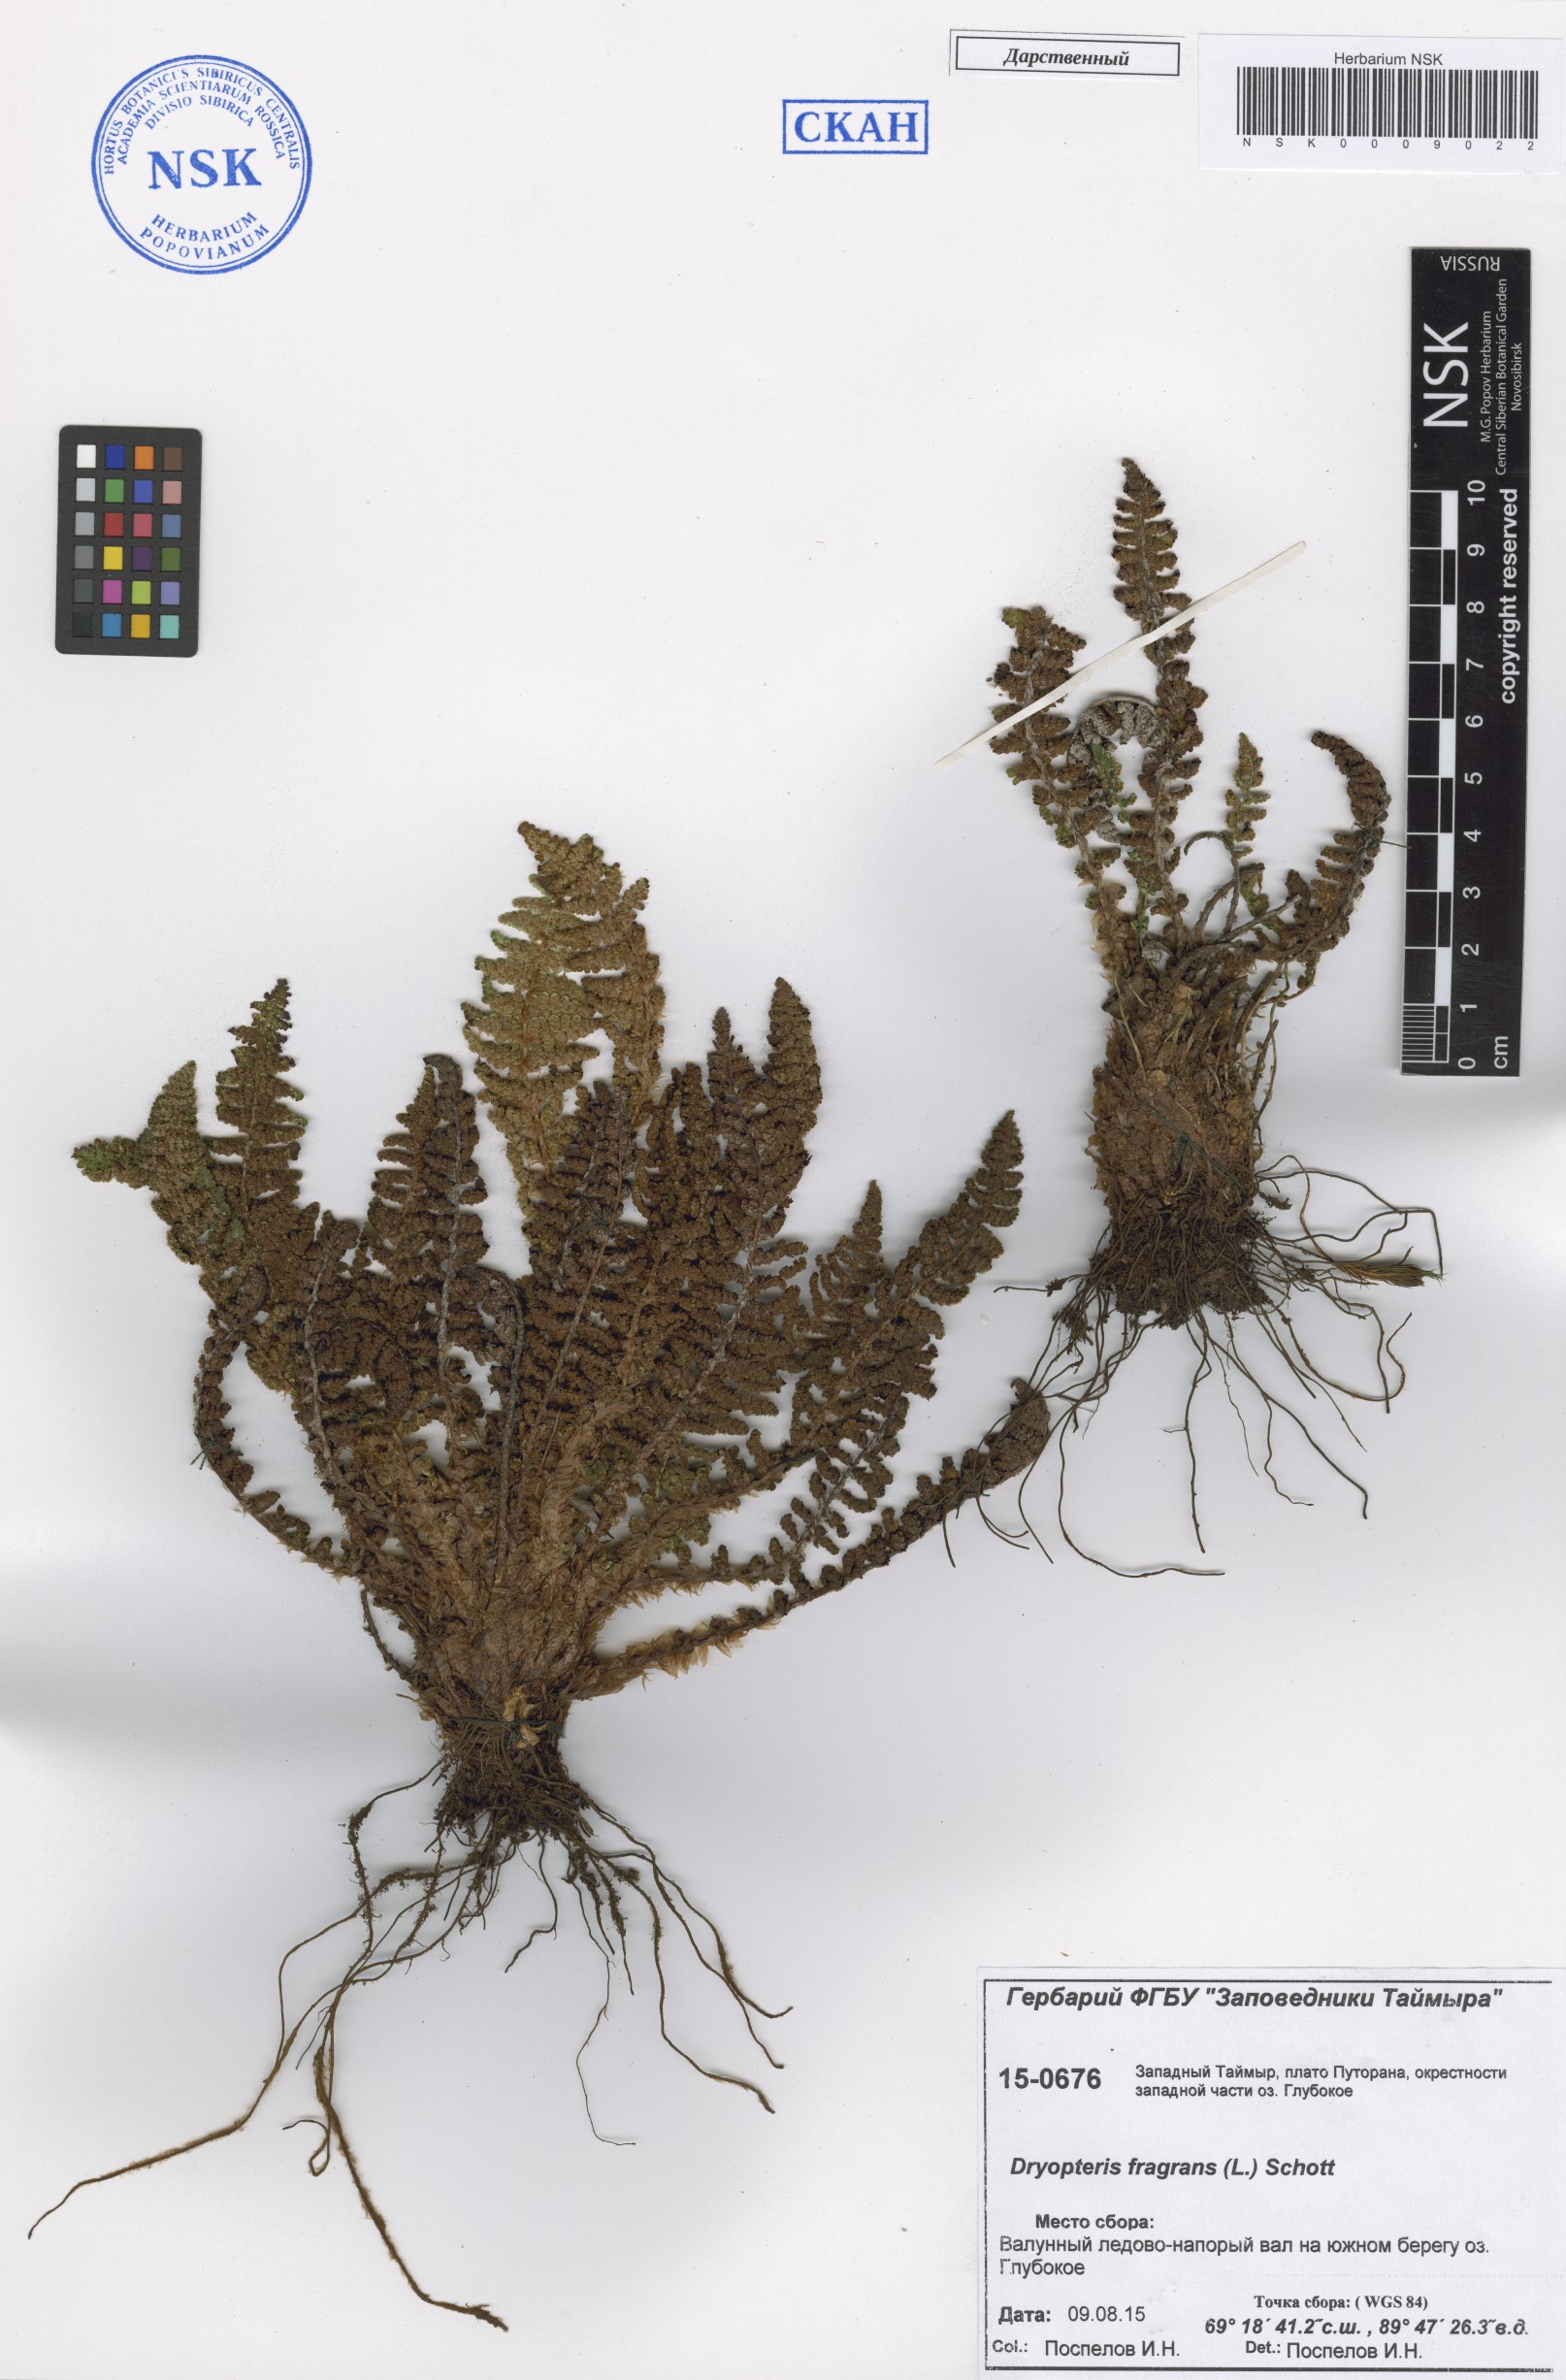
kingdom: Plantae
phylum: Tracheophyta
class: Polypodiopsida
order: Polypodiales
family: Dryopteridaceae
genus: Dryopteris
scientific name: Dryopteris fragrans
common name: Fragrant wood fern
